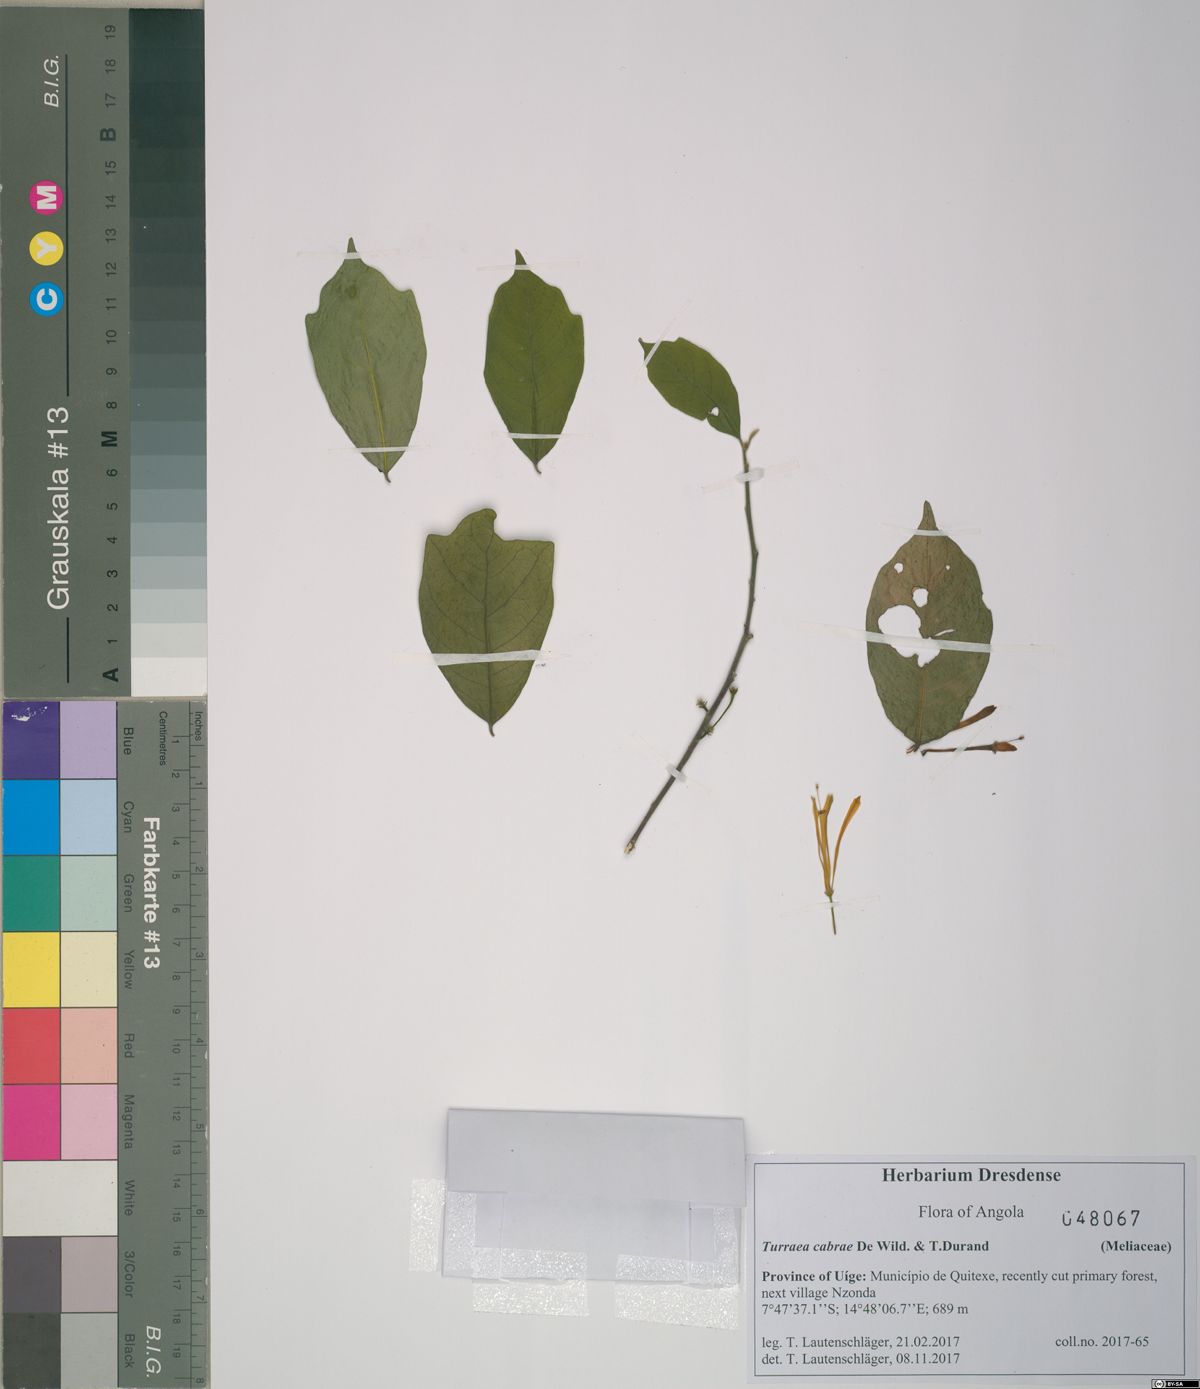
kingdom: Plantae
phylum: Tracheophyta
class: Magnoliopsida
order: Sapindales
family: Meliaceae
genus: Turraea
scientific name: Turraea cabrae
